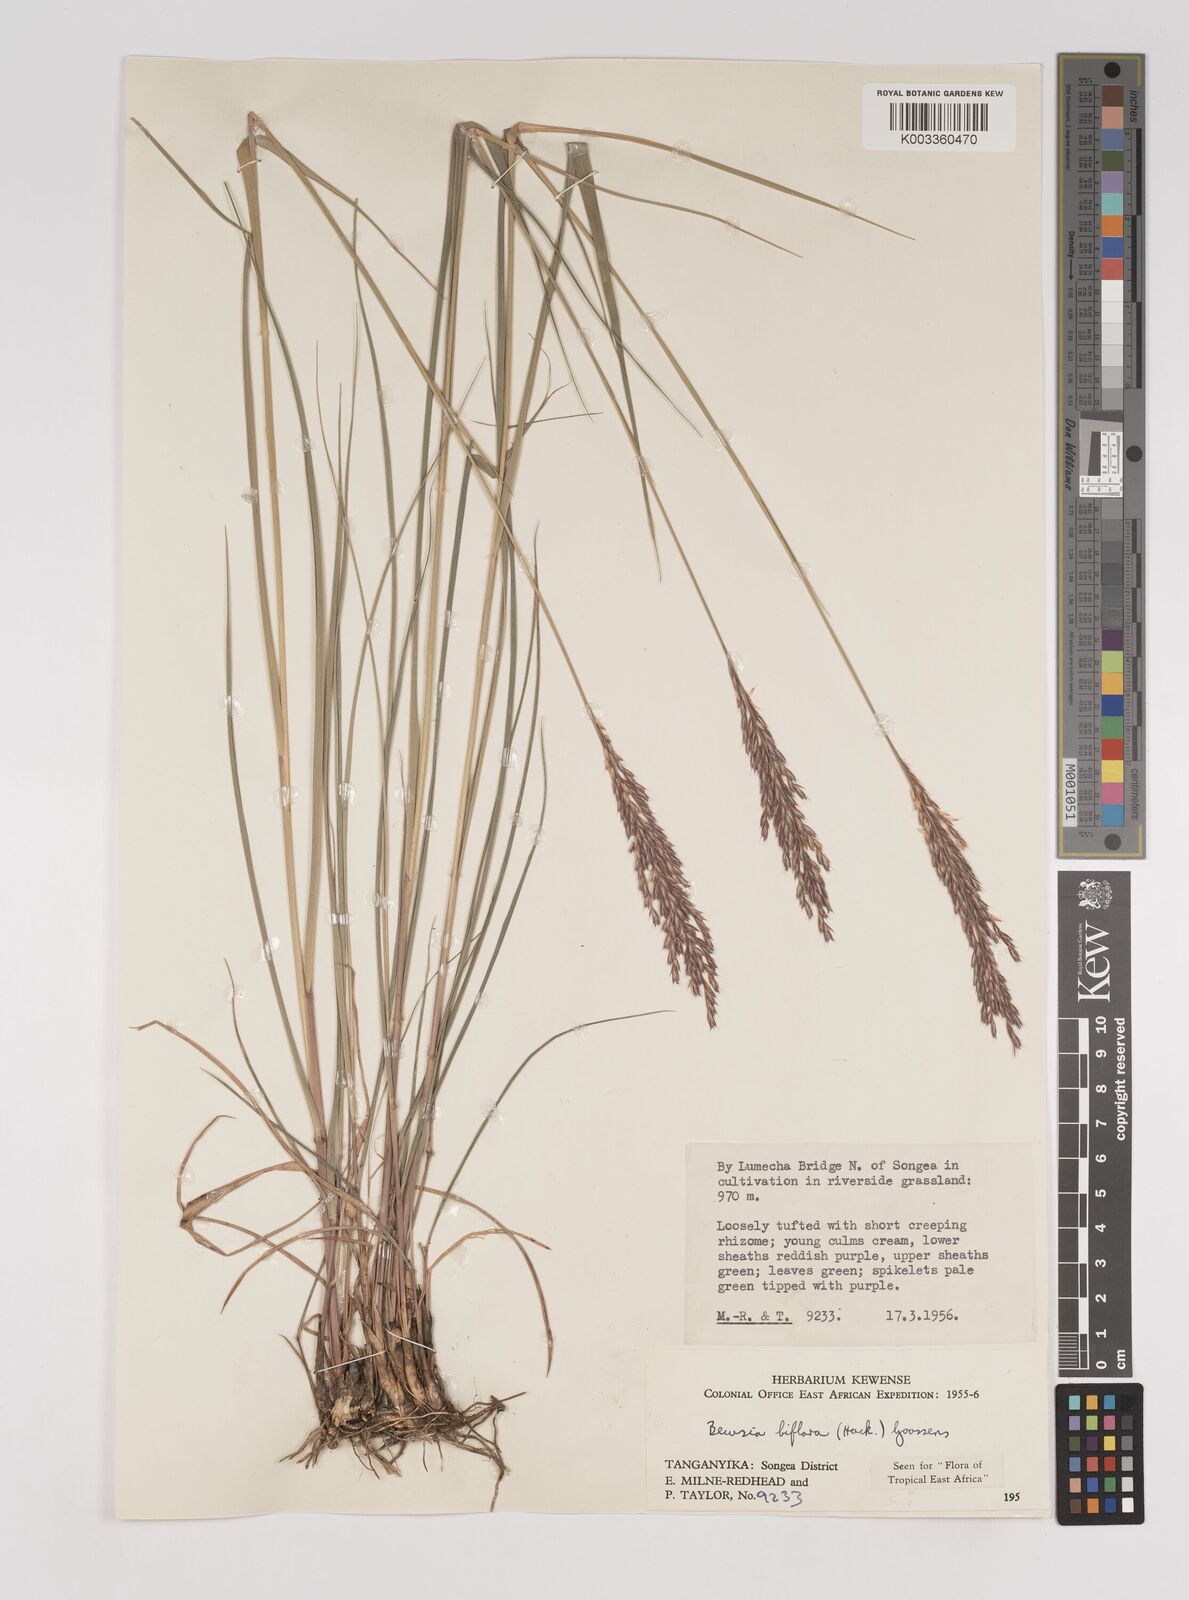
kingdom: Plantae
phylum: Tracheophyta
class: Liliopsida
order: Poales
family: Poaceae
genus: Bewsia
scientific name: Bewsia biflora
